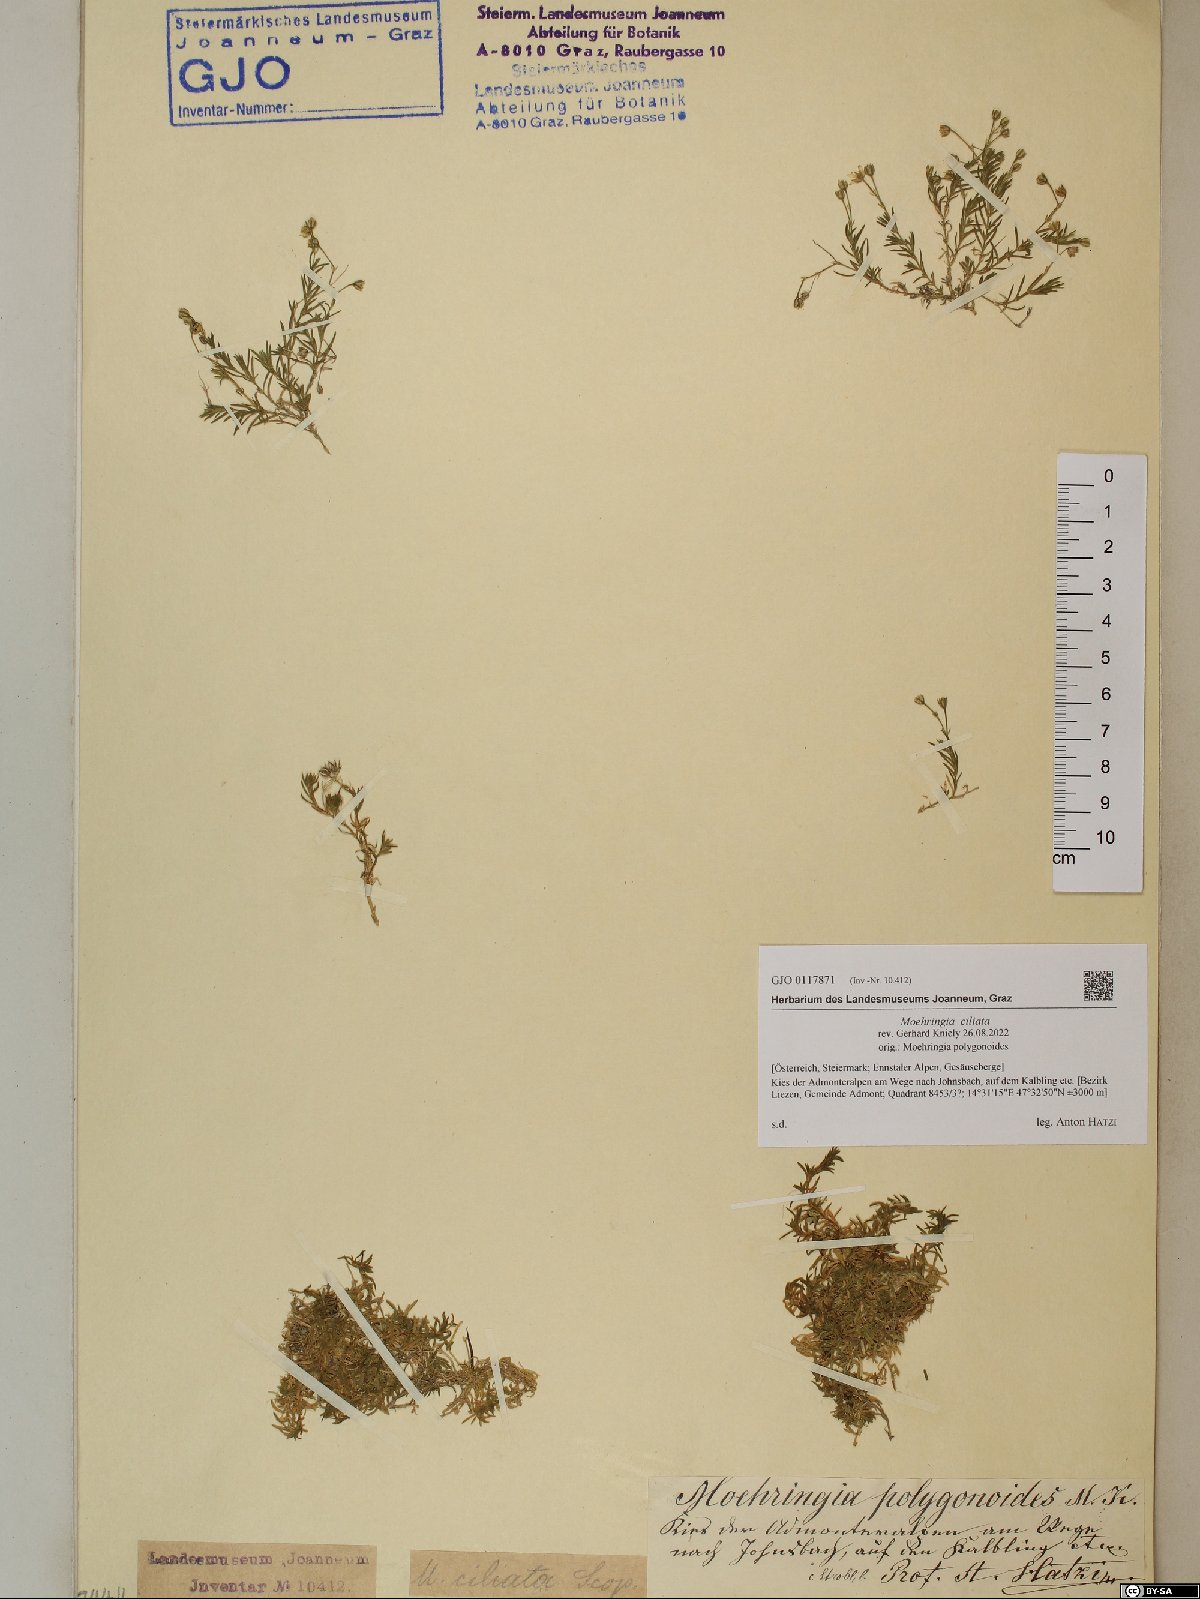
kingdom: Plantae
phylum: Tracheophyta
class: Magnoliopsida
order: Caryophyllales
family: Caryophyllaceae
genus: Moehringia
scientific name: Moehringia ciliata
